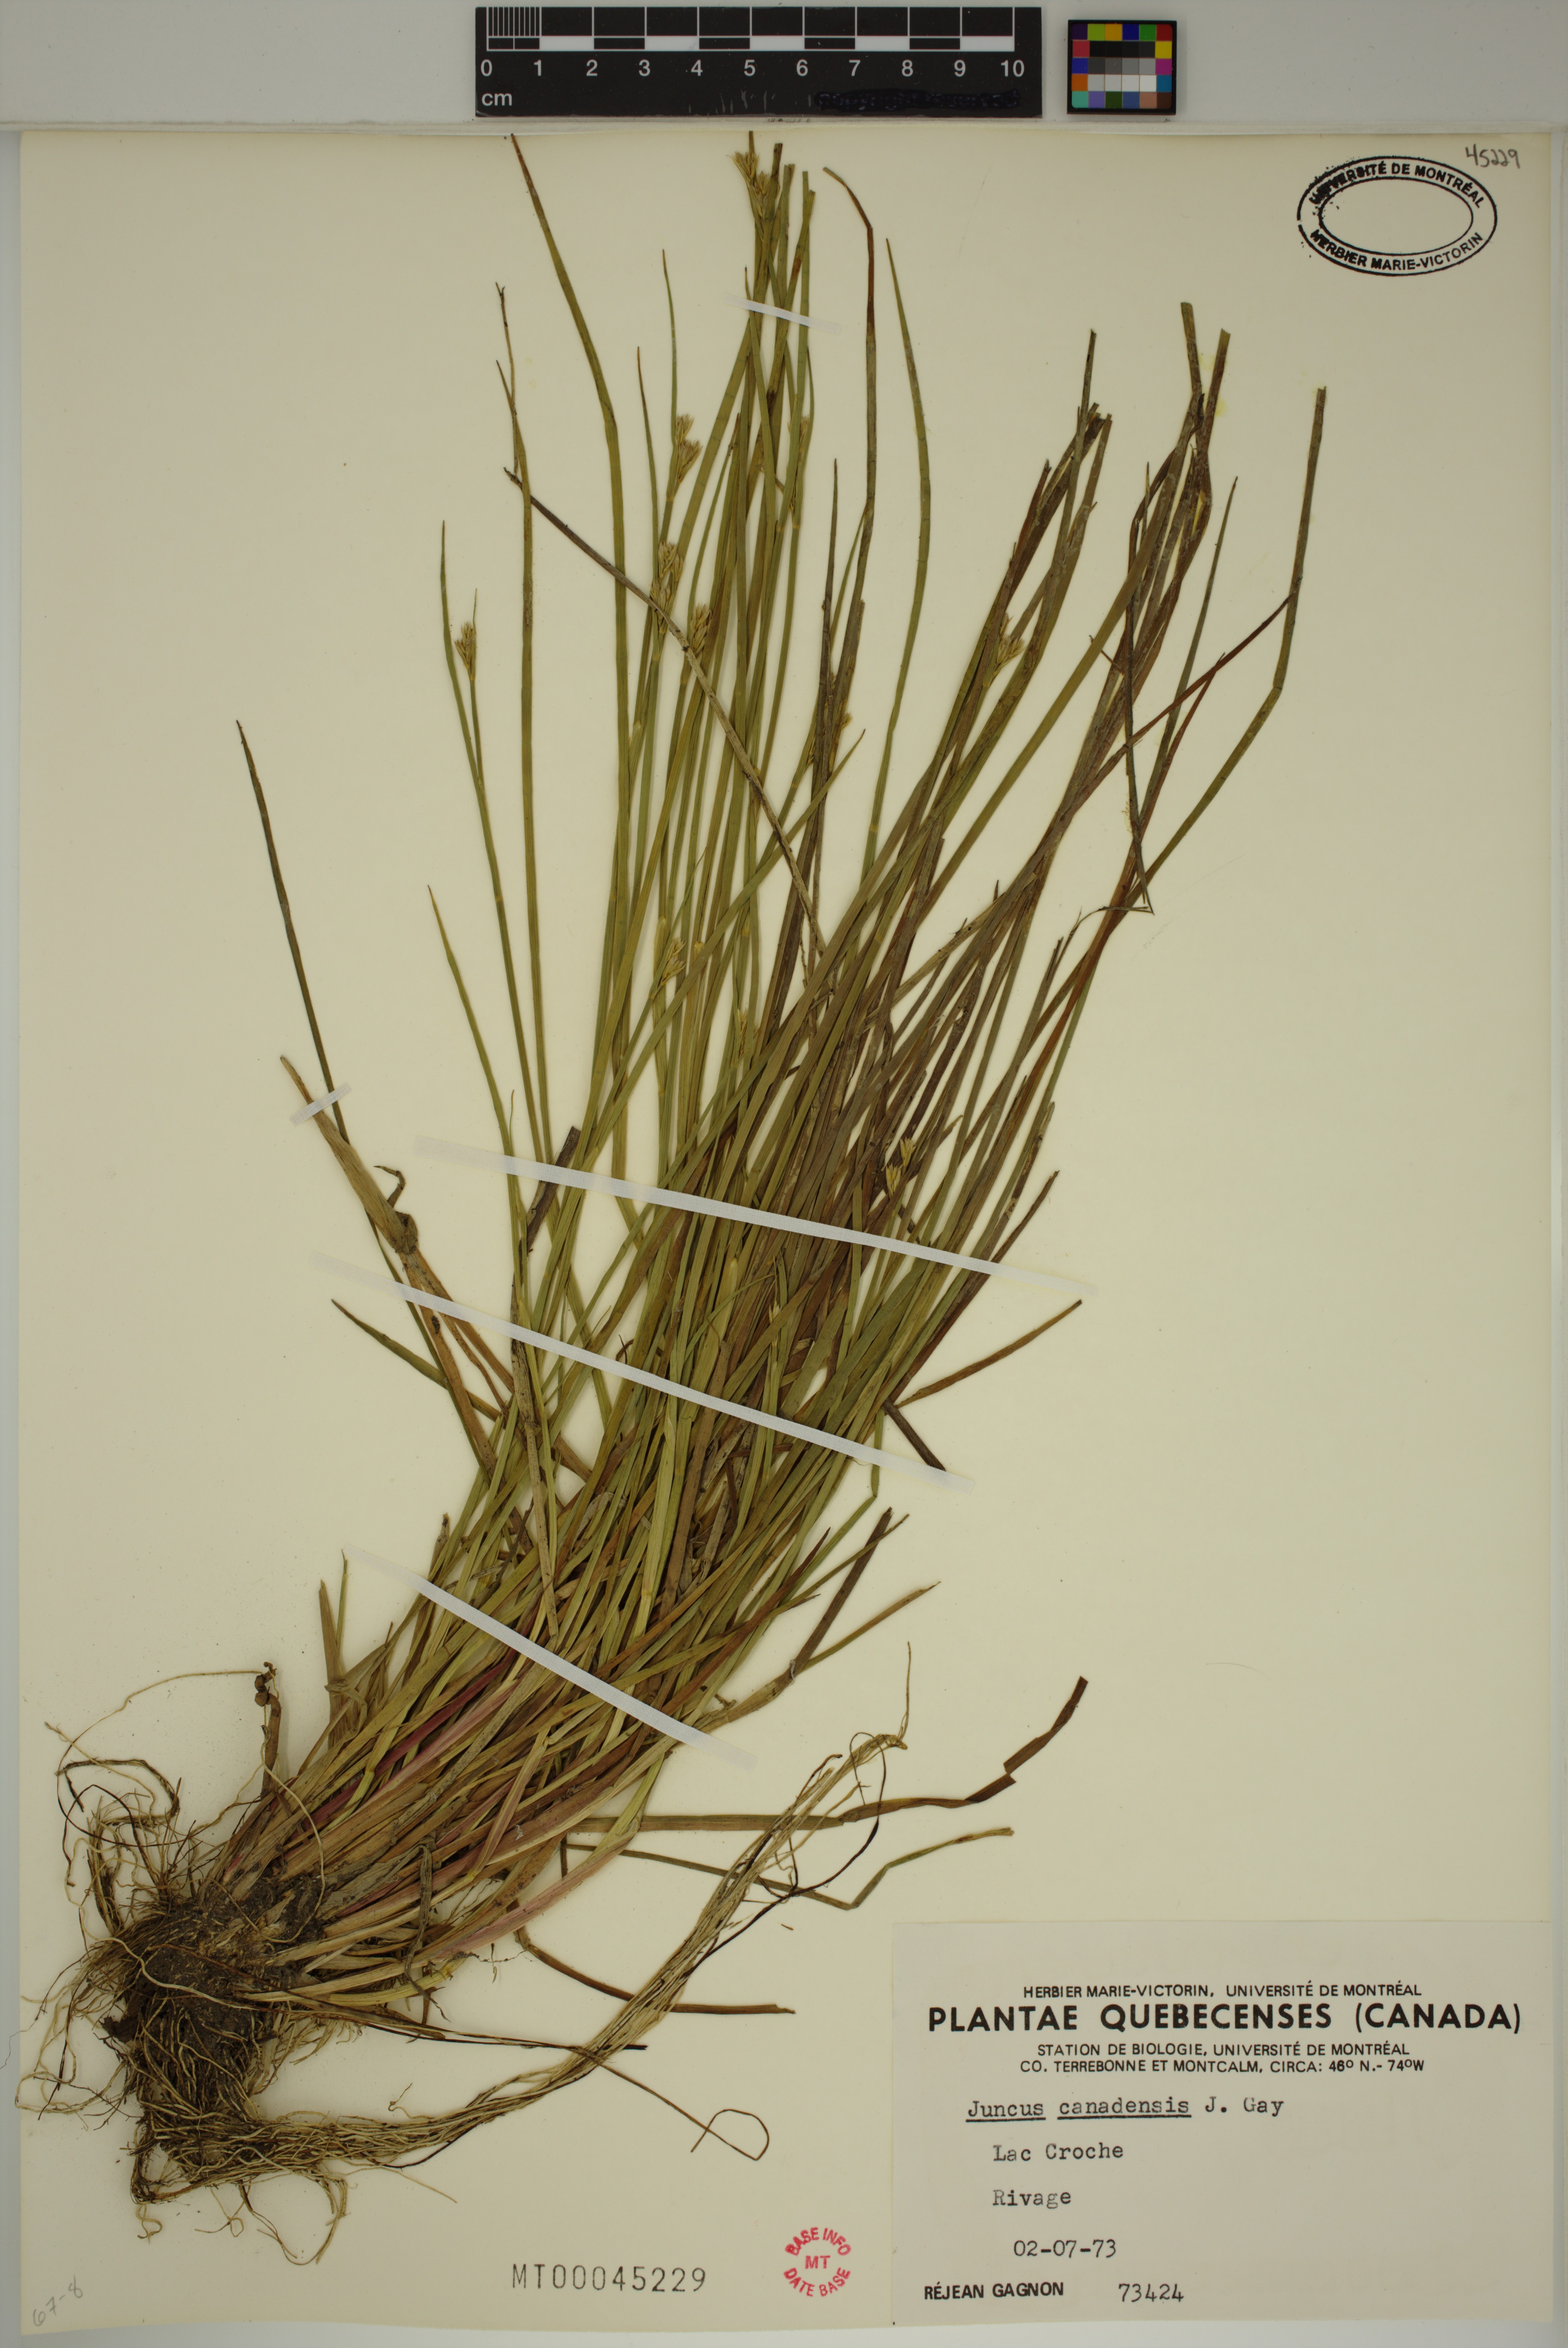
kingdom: Plantae
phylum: Tracheophyta
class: Liliopsida
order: Poales
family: Juncaceae
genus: Juncus
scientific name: Juncus canadensis
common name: Canada rush
